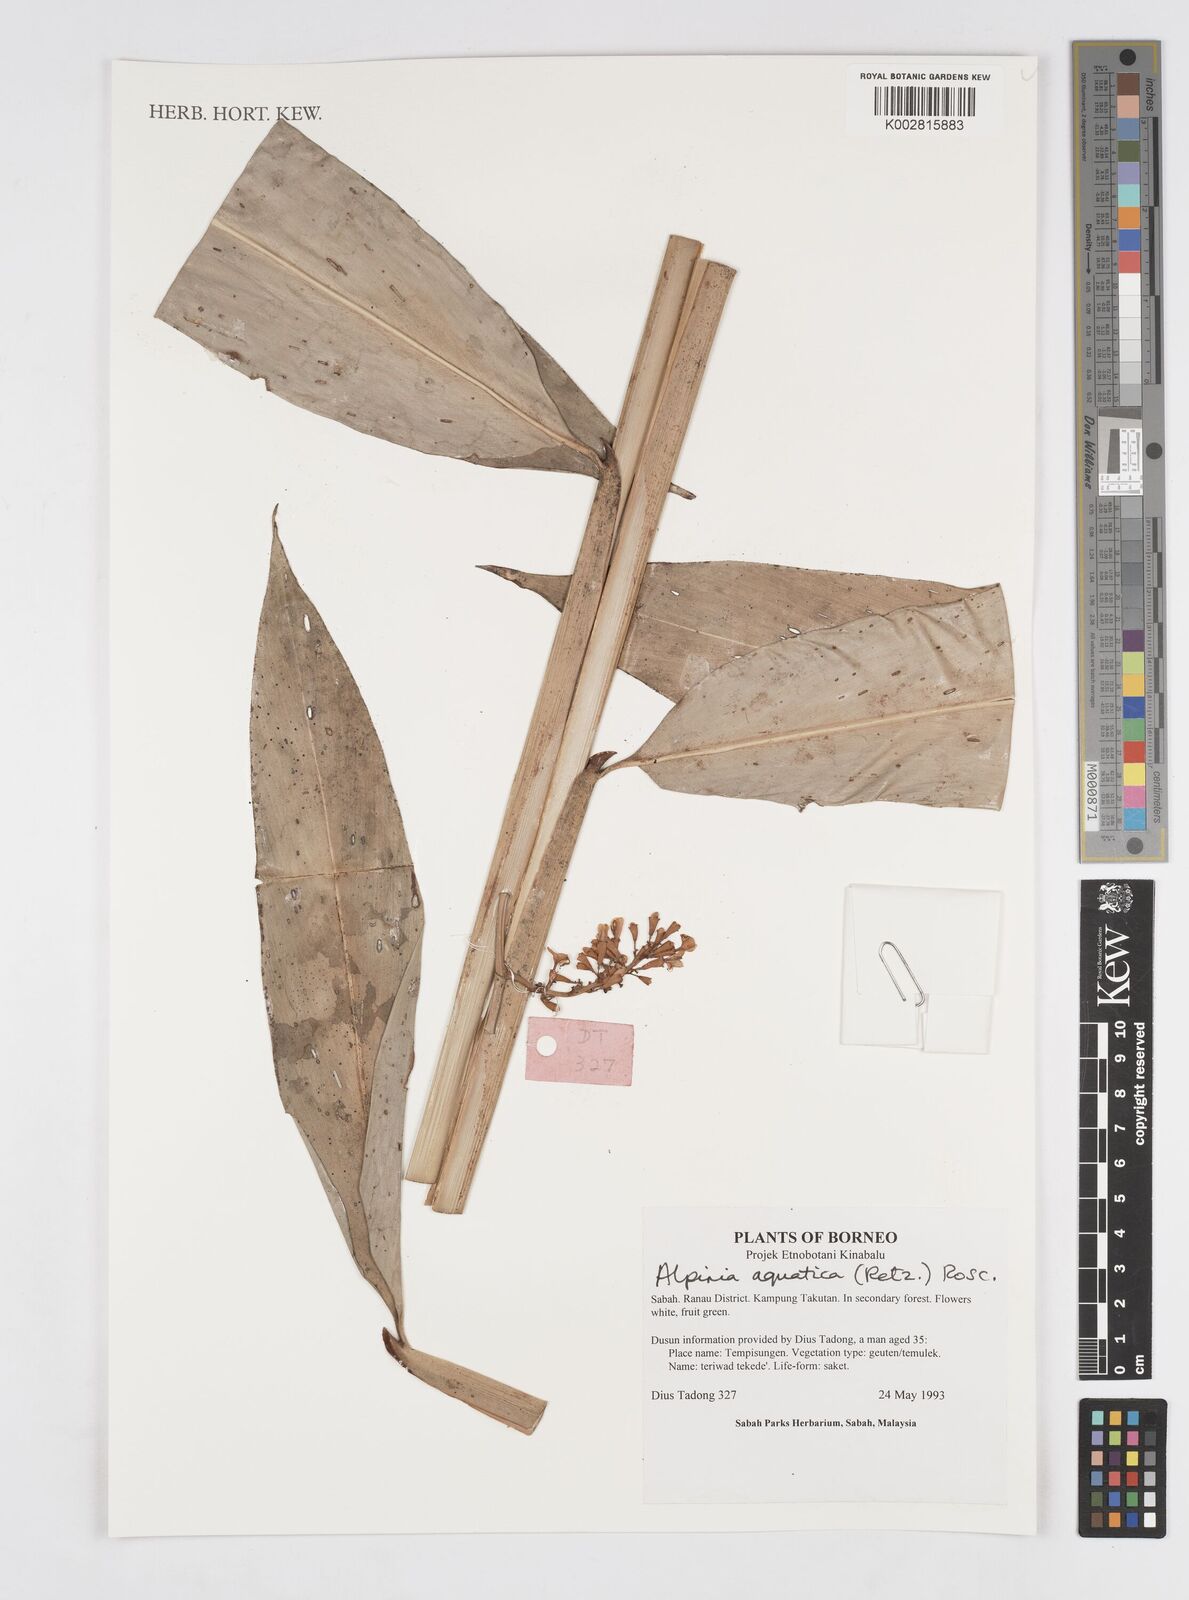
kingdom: Plantae
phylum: Tracheophyta
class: Liliopsida
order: Zingiberales
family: Zingiberaceae
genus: Alpinia
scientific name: Alpinia aquatica
